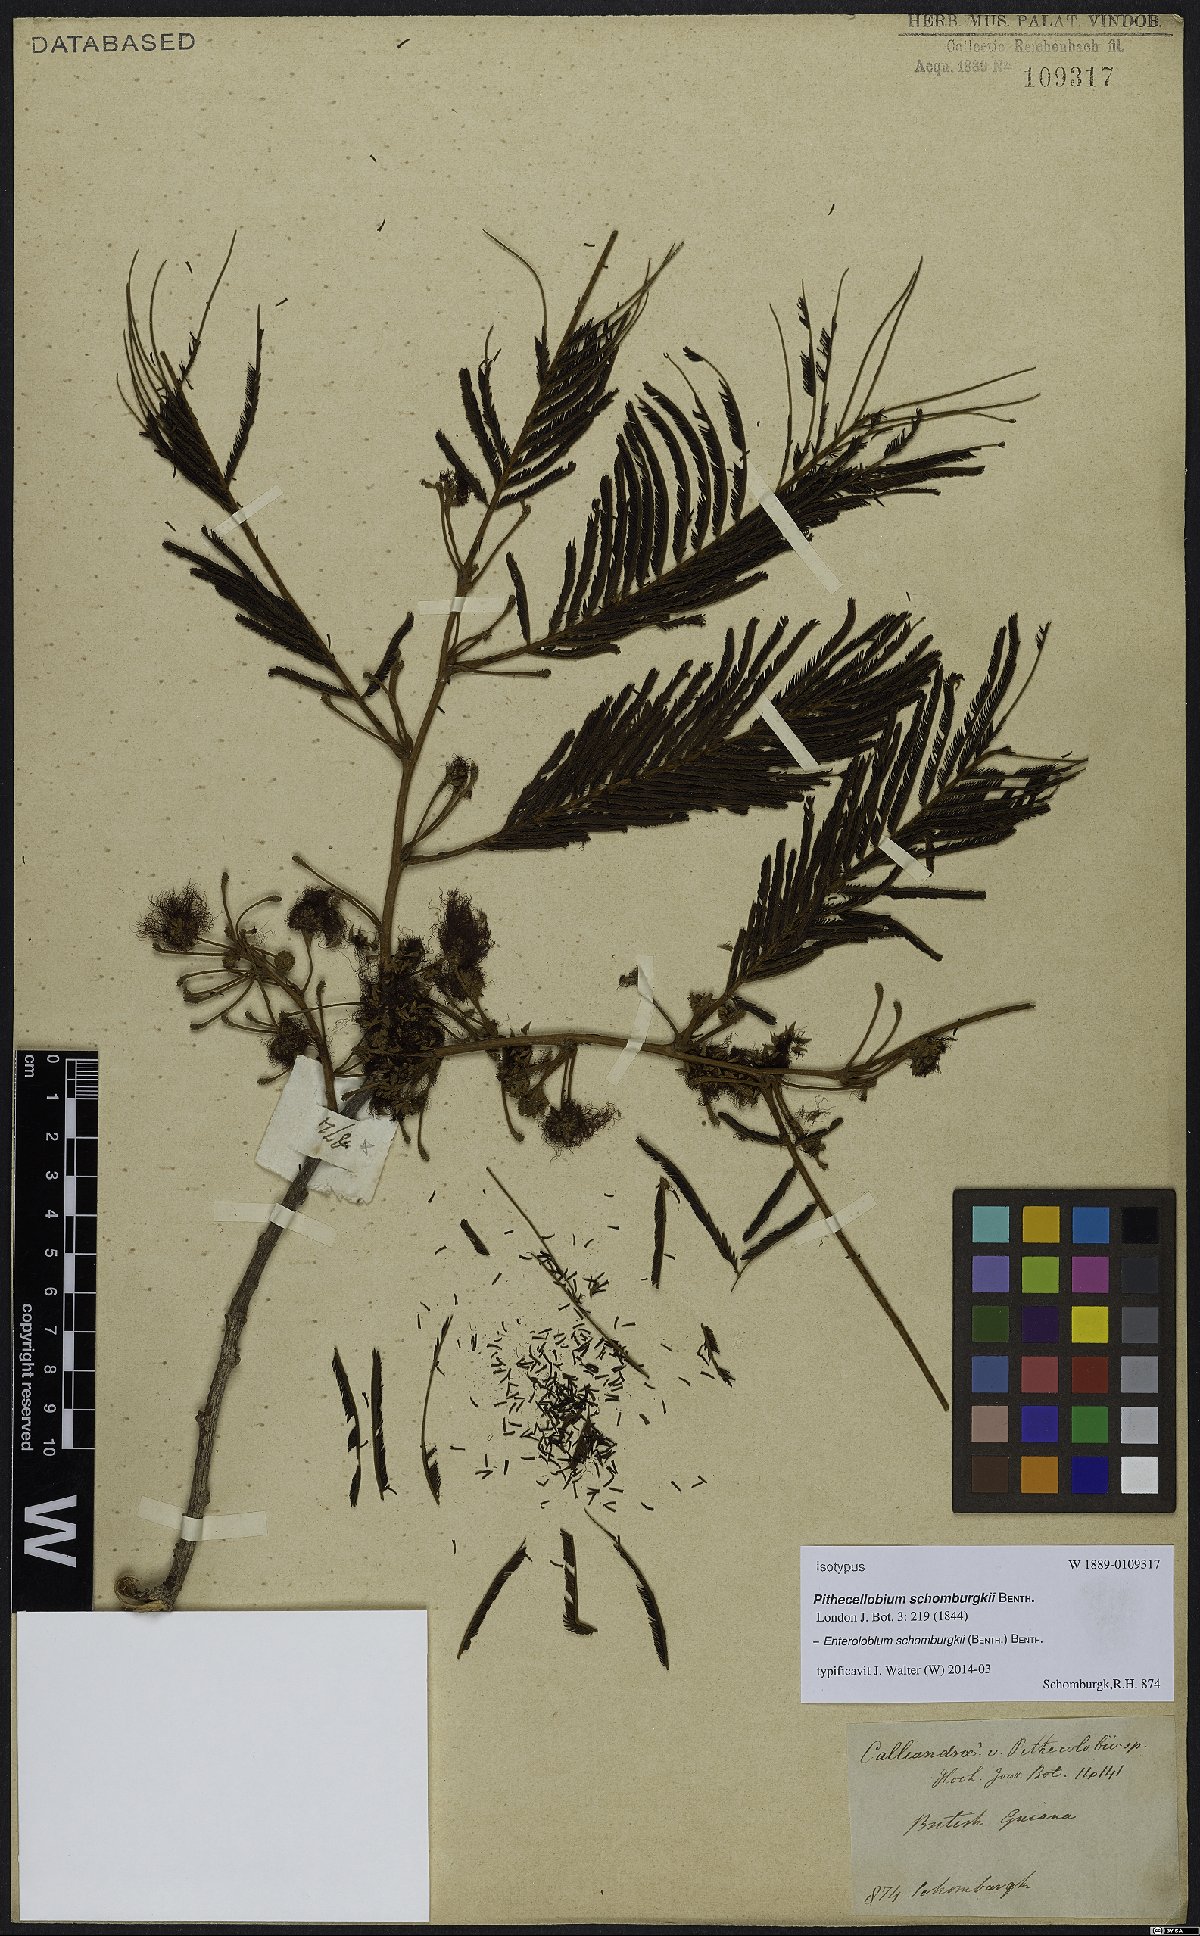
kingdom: Plantae
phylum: Tracheophyta
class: Magnoliopsida
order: Fabales
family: Fabaceae
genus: Enterolobium
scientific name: Enterolobium schomburgkii
